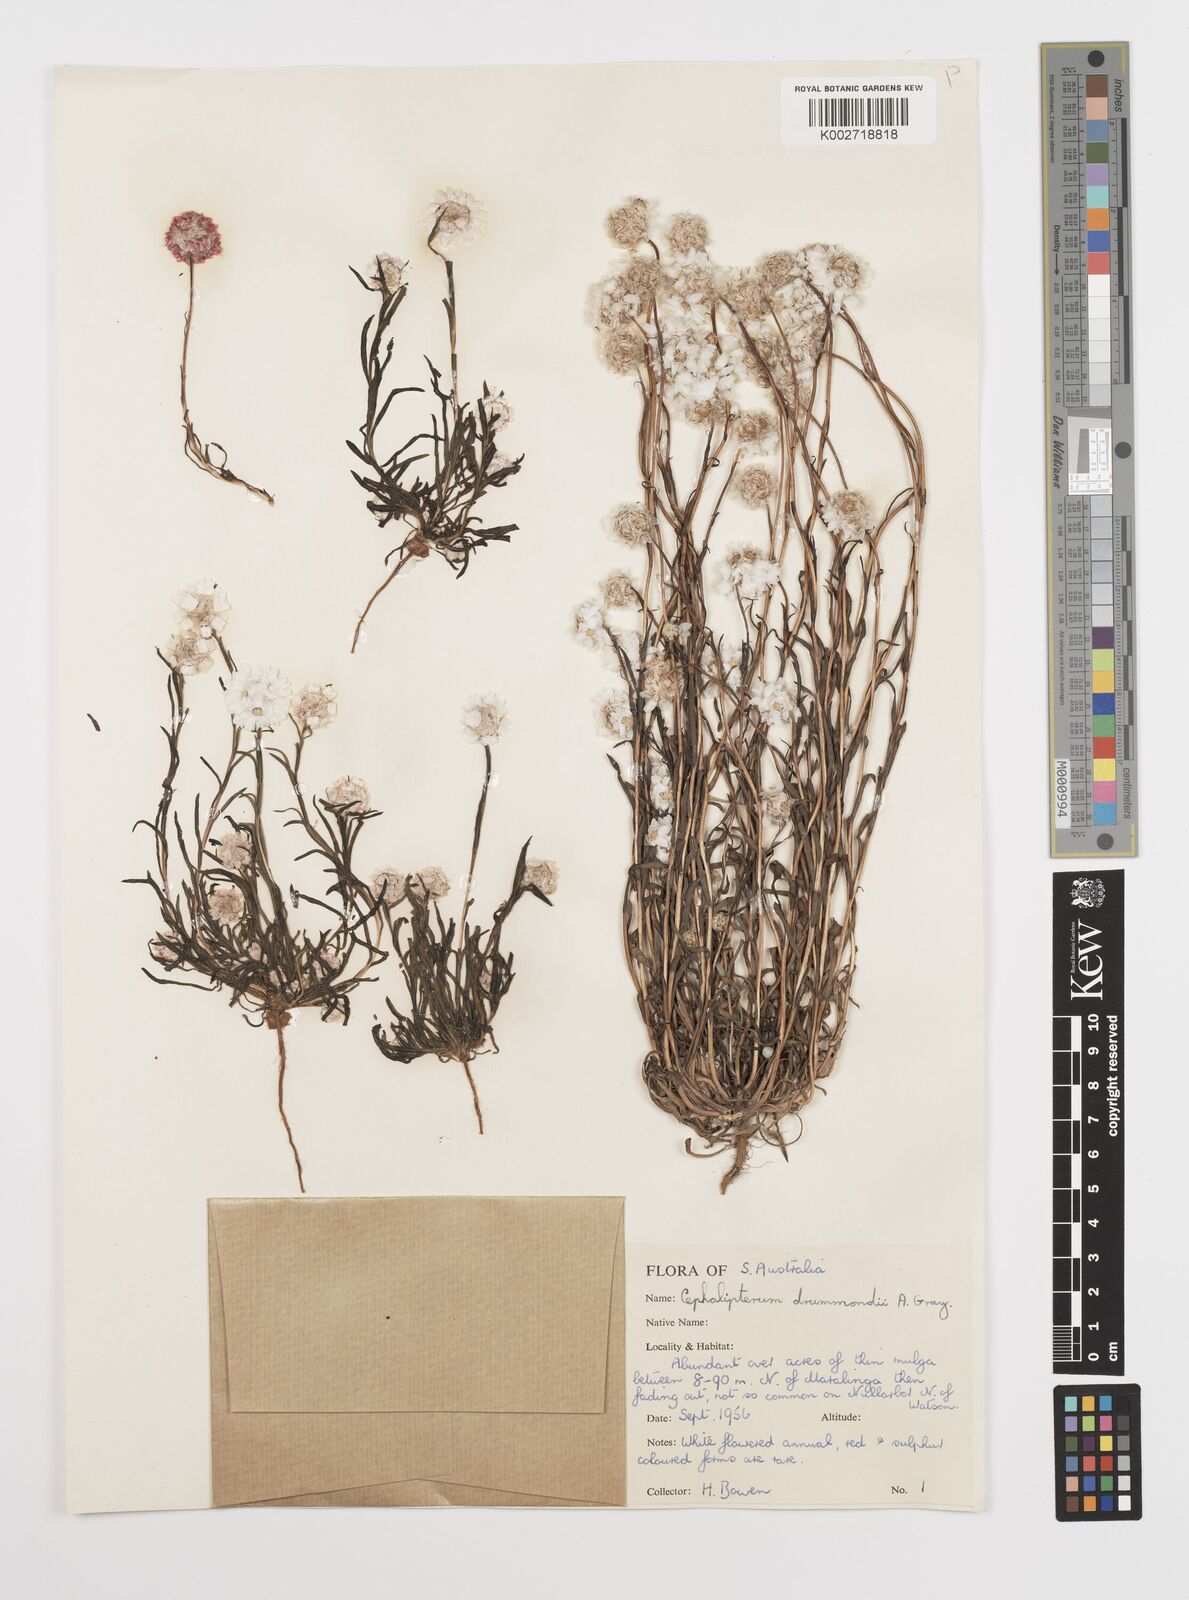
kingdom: Plantae
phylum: Tracheophyta
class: Magnoliopsida
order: Asterales
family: Asteraceae
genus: Cephalipterum
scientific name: Cephalipterum drummondii
